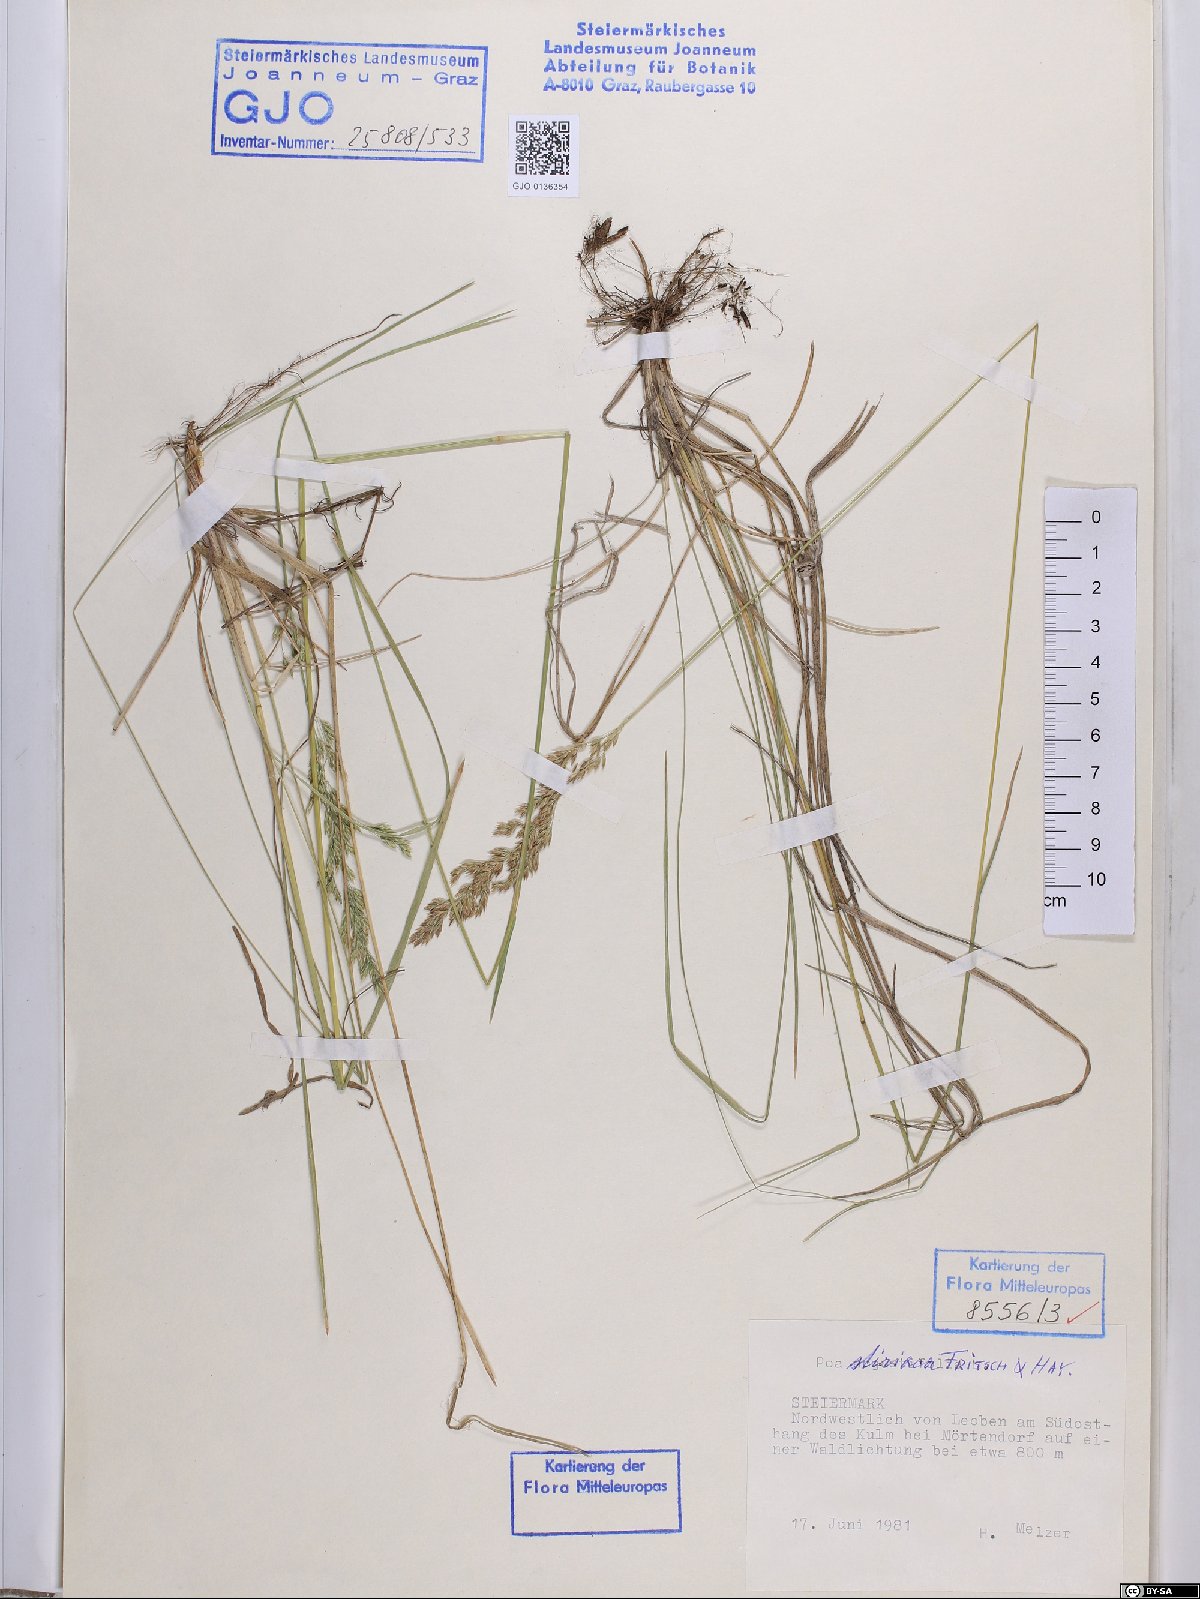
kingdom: Plantae
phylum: Tracheophyta
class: Liliopsida
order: Poales
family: Poaceae
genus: Poa
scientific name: Poa stiriaca
